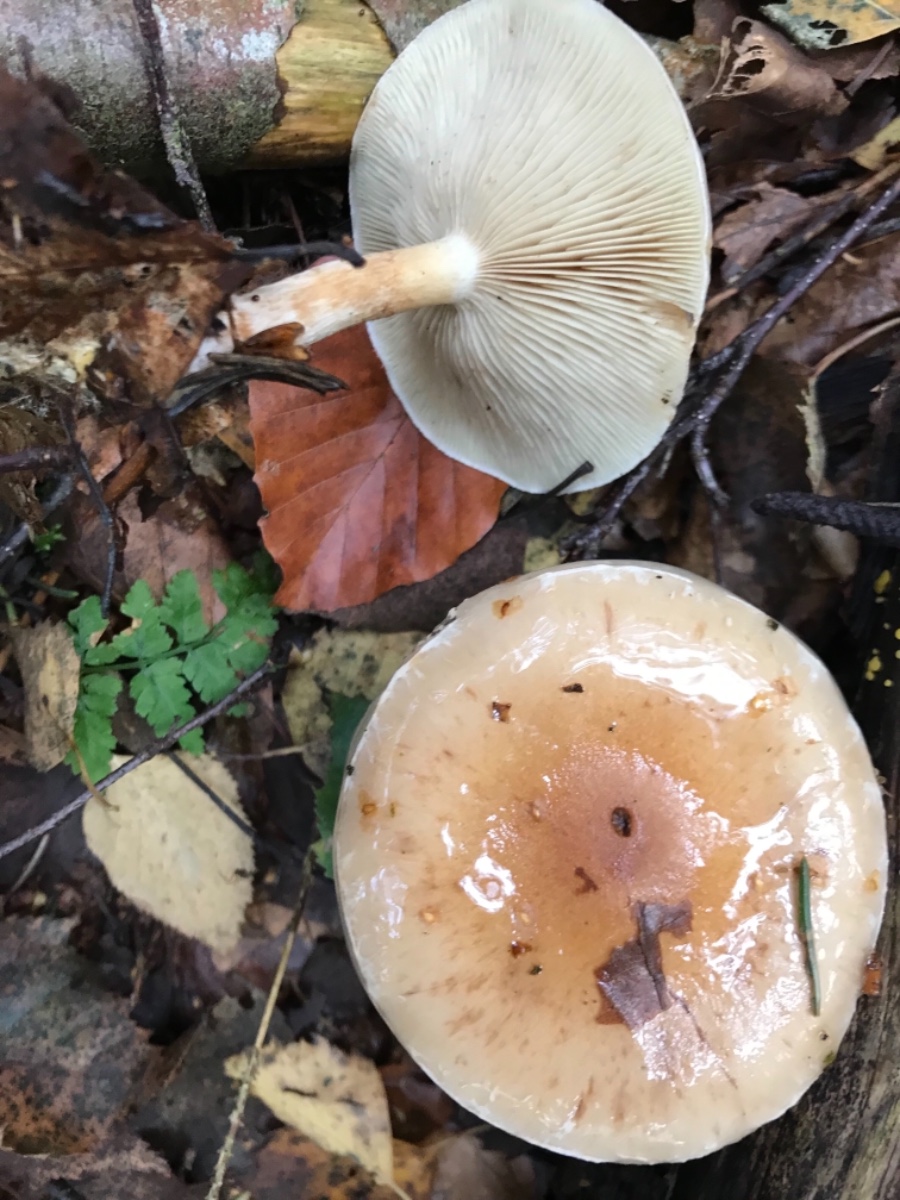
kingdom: Fungi
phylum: Basidiomycota
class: Agaricomycetes
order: Agaricales
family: Strophariaceae
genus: Pholiota
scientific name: Pholiota lenta
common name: løv-skælhat
